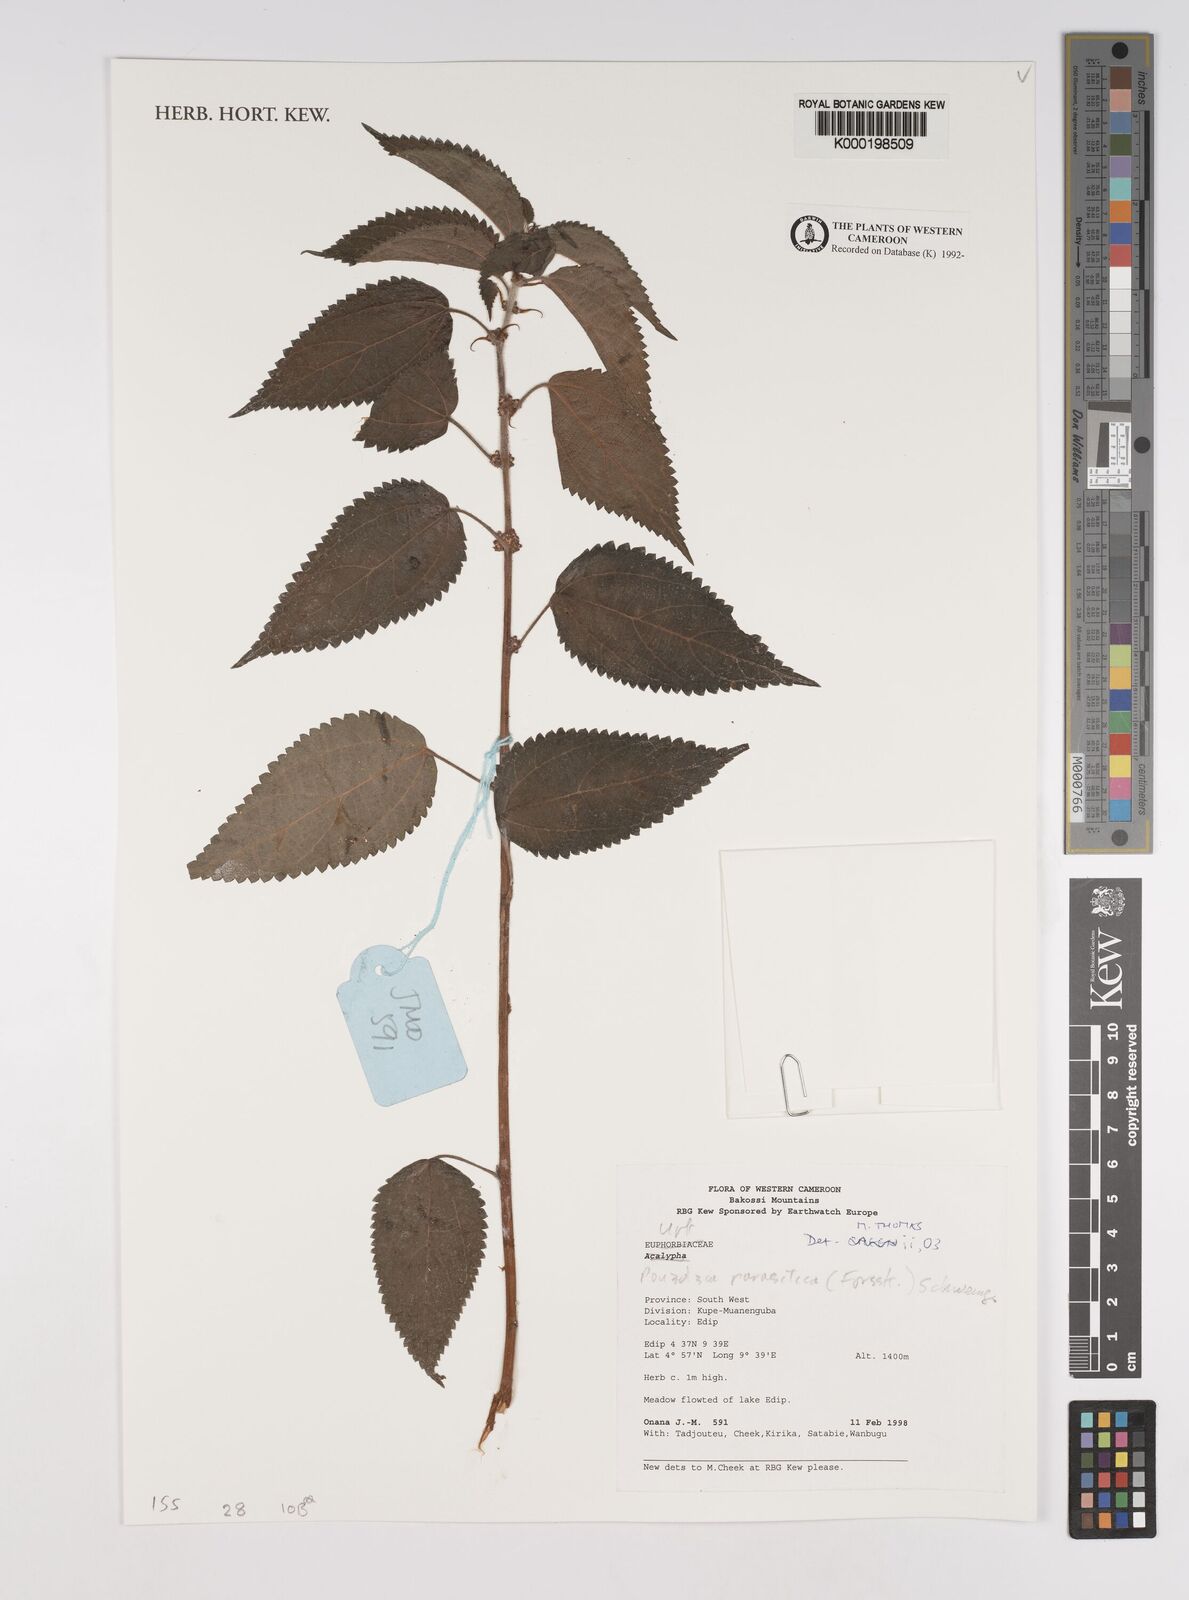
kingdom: Plantae
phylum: Tracheophyta
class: Magnoliopsida
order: Rosales
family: Urticaceae
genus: Pouzolzia
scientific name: Pouzolzia parasitica
